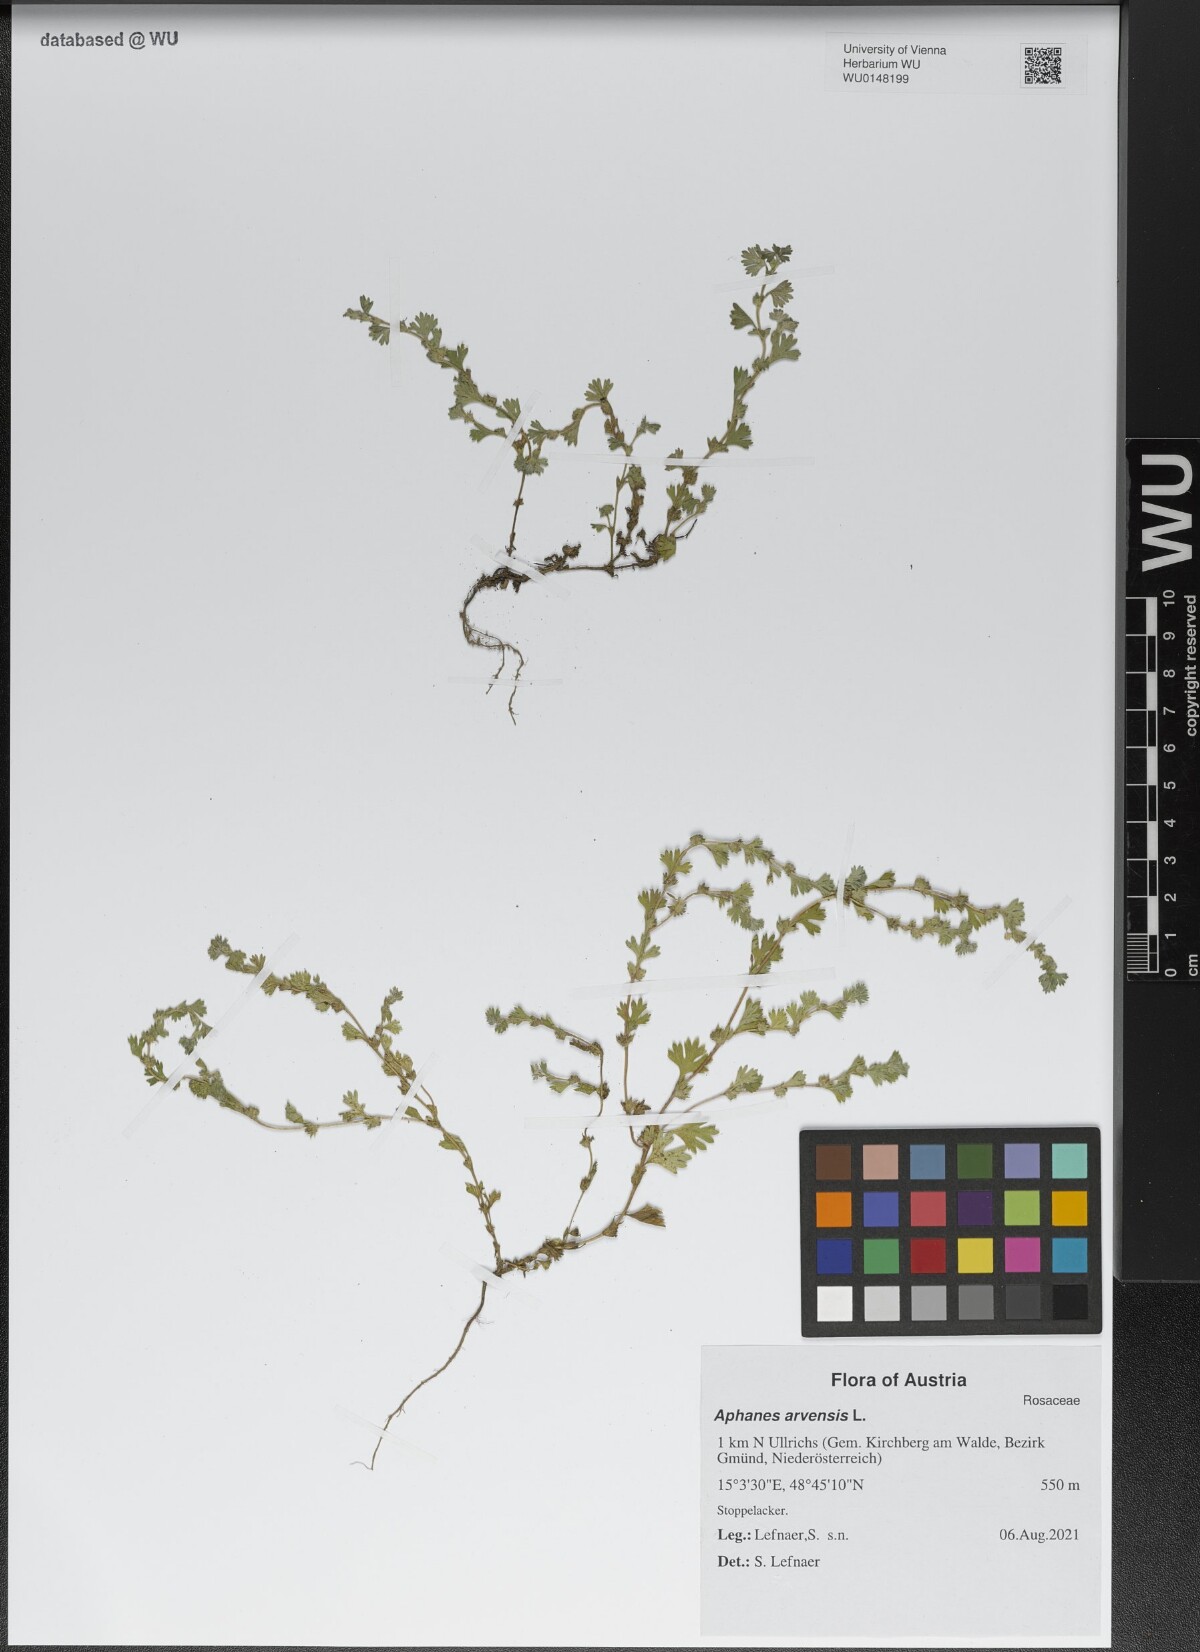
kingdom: Plantae
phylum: Tracheophyta
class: Magnoliopsida
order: Rosales
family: Rosaceae
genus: Aphanes
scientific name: Aphanes arvensis
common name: Parsley-piert
